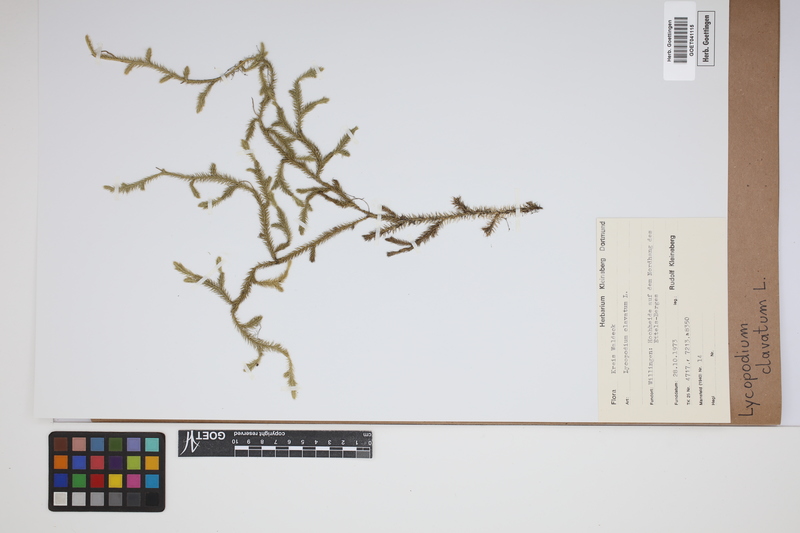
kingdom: Plantae
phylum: Tracheophyta
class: Lycopodiopsida
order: Lycopodiales
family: Lycopodiaceae
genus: Lycopodium
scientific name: Lycopodium clavatum
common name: Stag's-horn clubmoss
